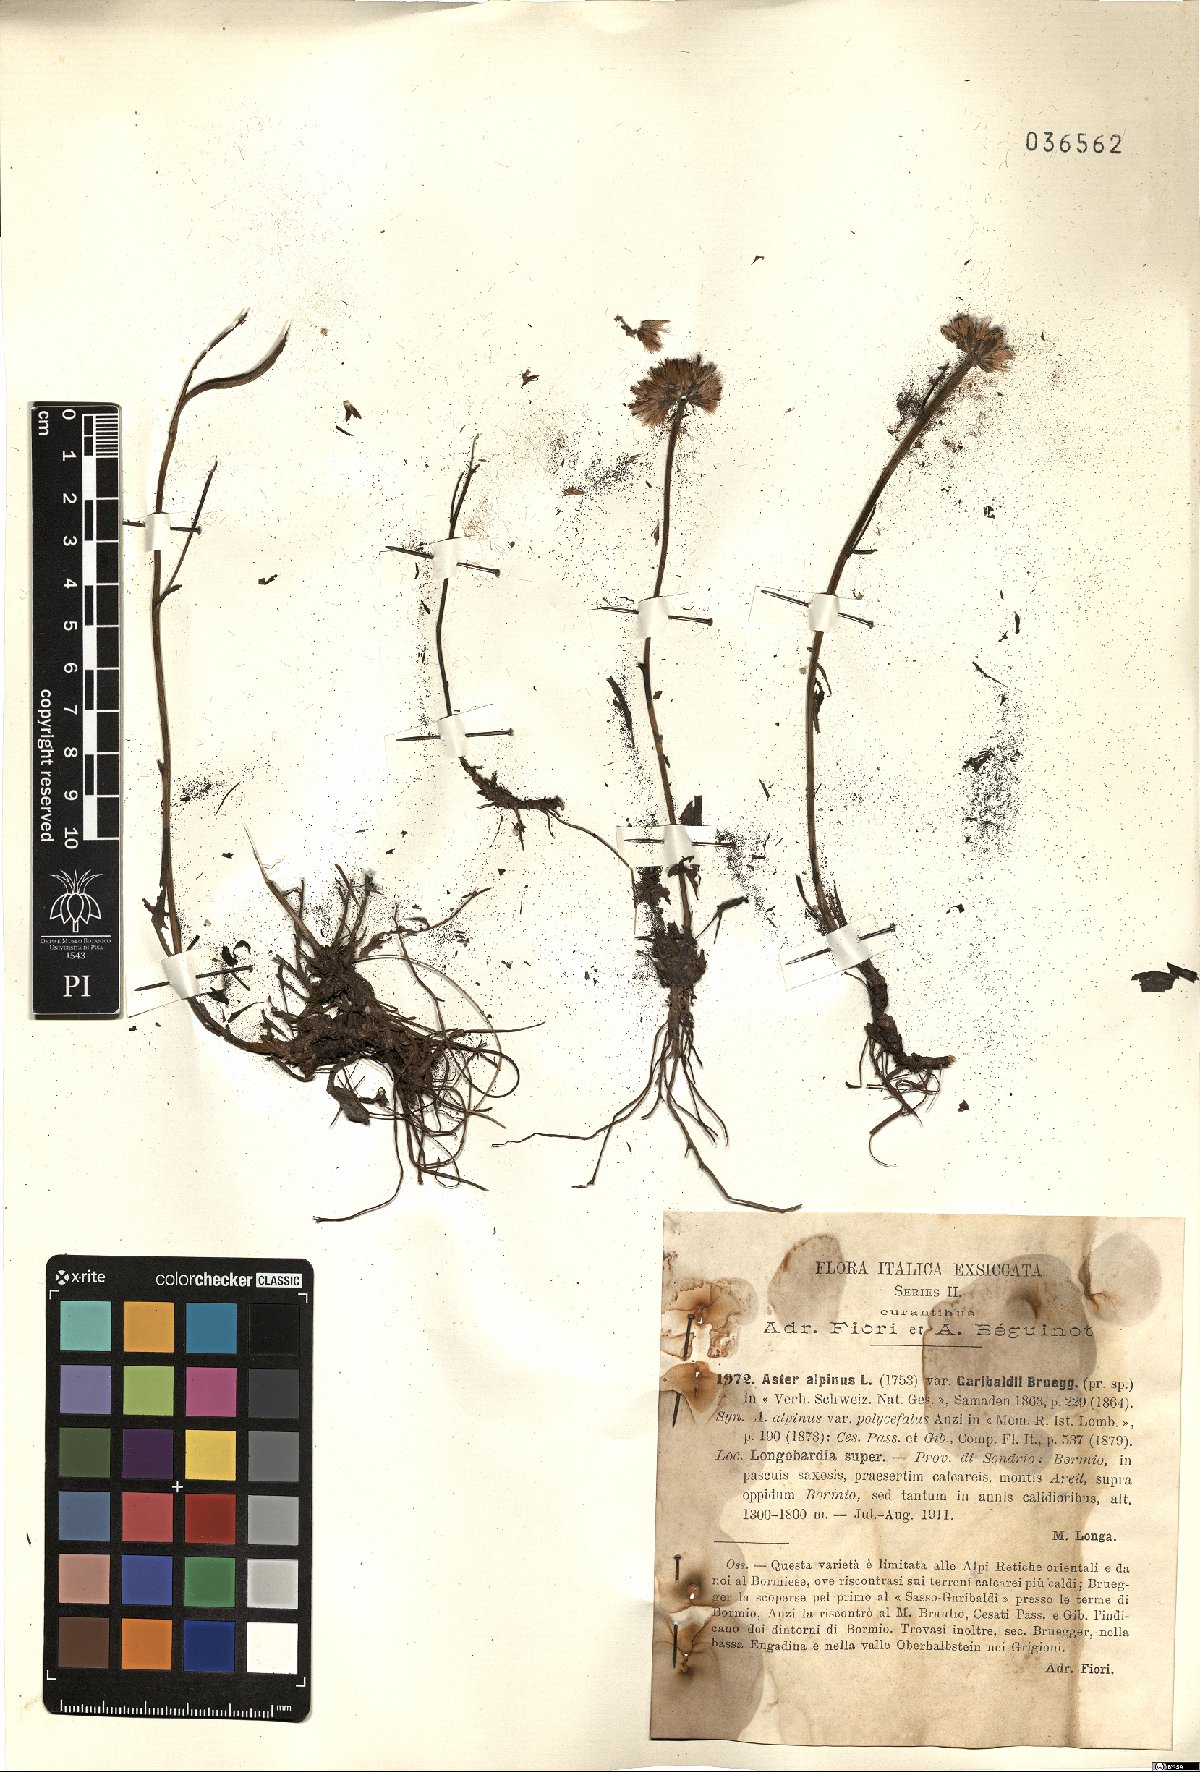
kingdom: Plantae
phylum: Tracheophyta
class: Magnoliopsida
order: Asterales
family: Asteraceae
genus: Aster
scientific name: Aster alpinus
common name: Alpine aster
